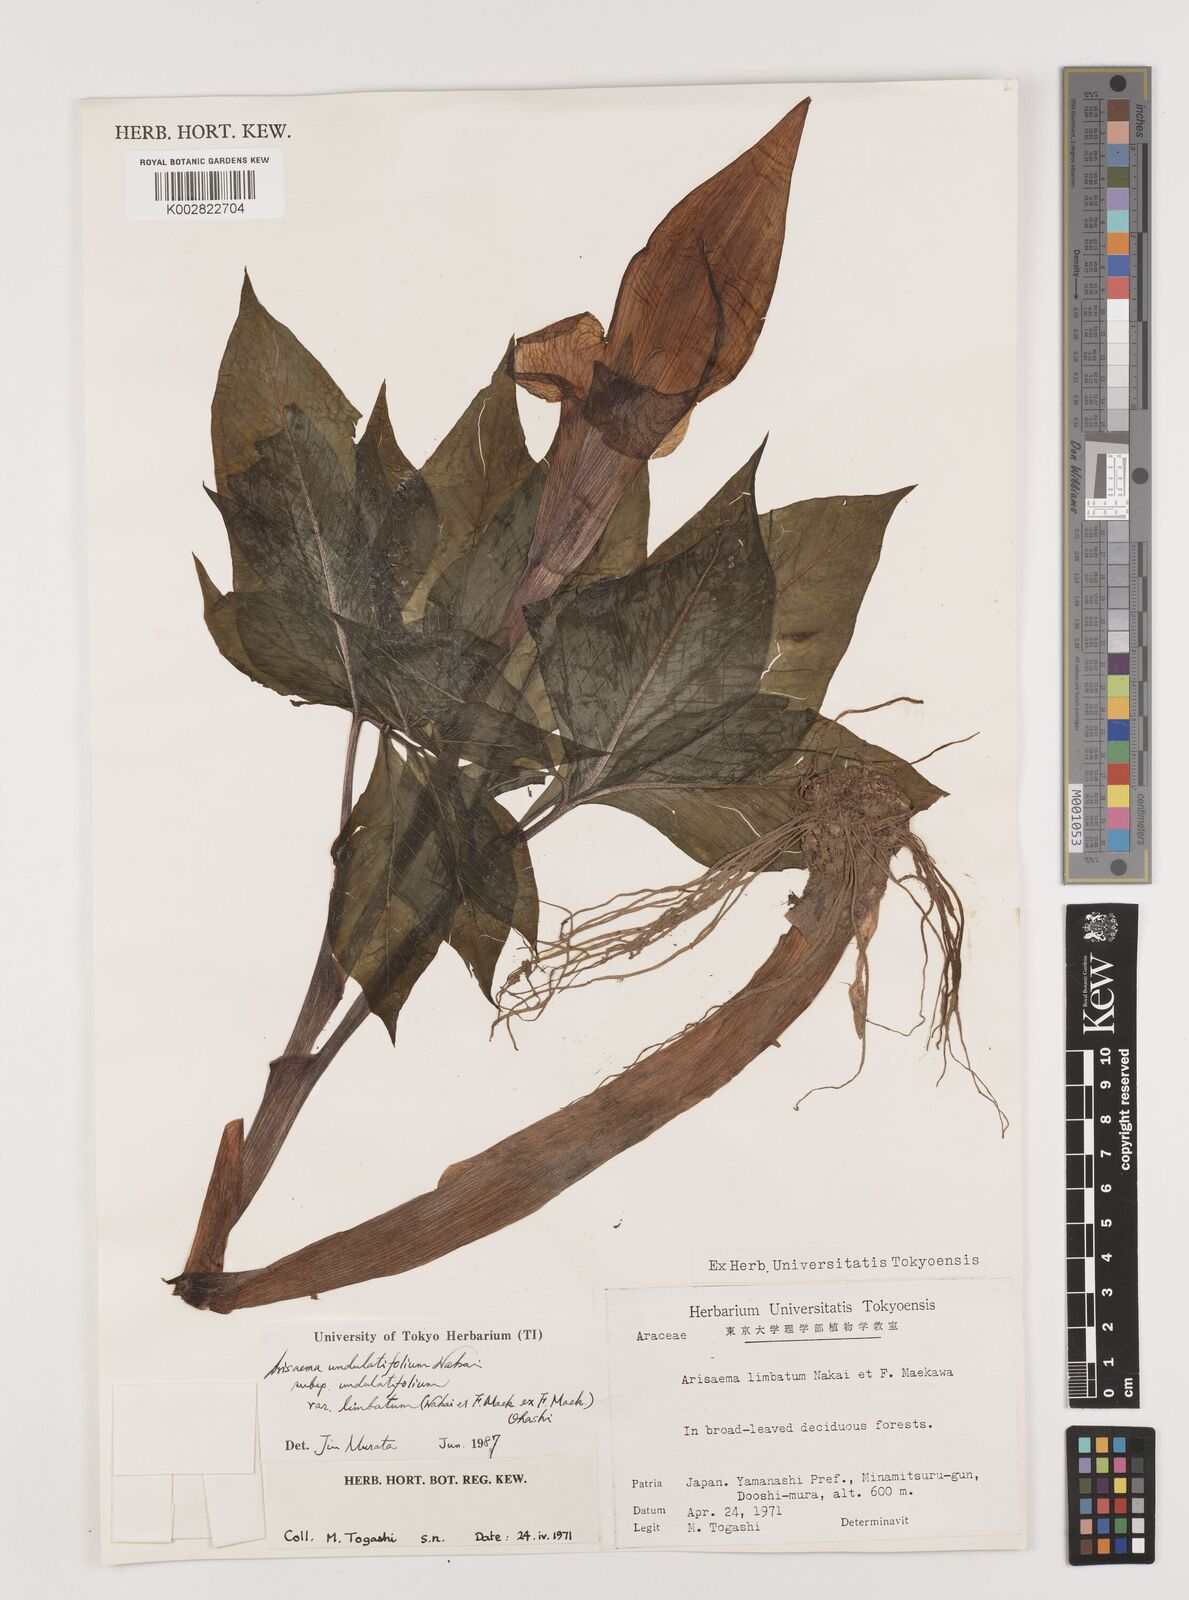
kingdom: Plantae
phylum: Tracheophyta
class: Liliopsida
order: Alismatales
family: Araceae
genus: Arisaema
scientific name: Arisaema undulatifolium
